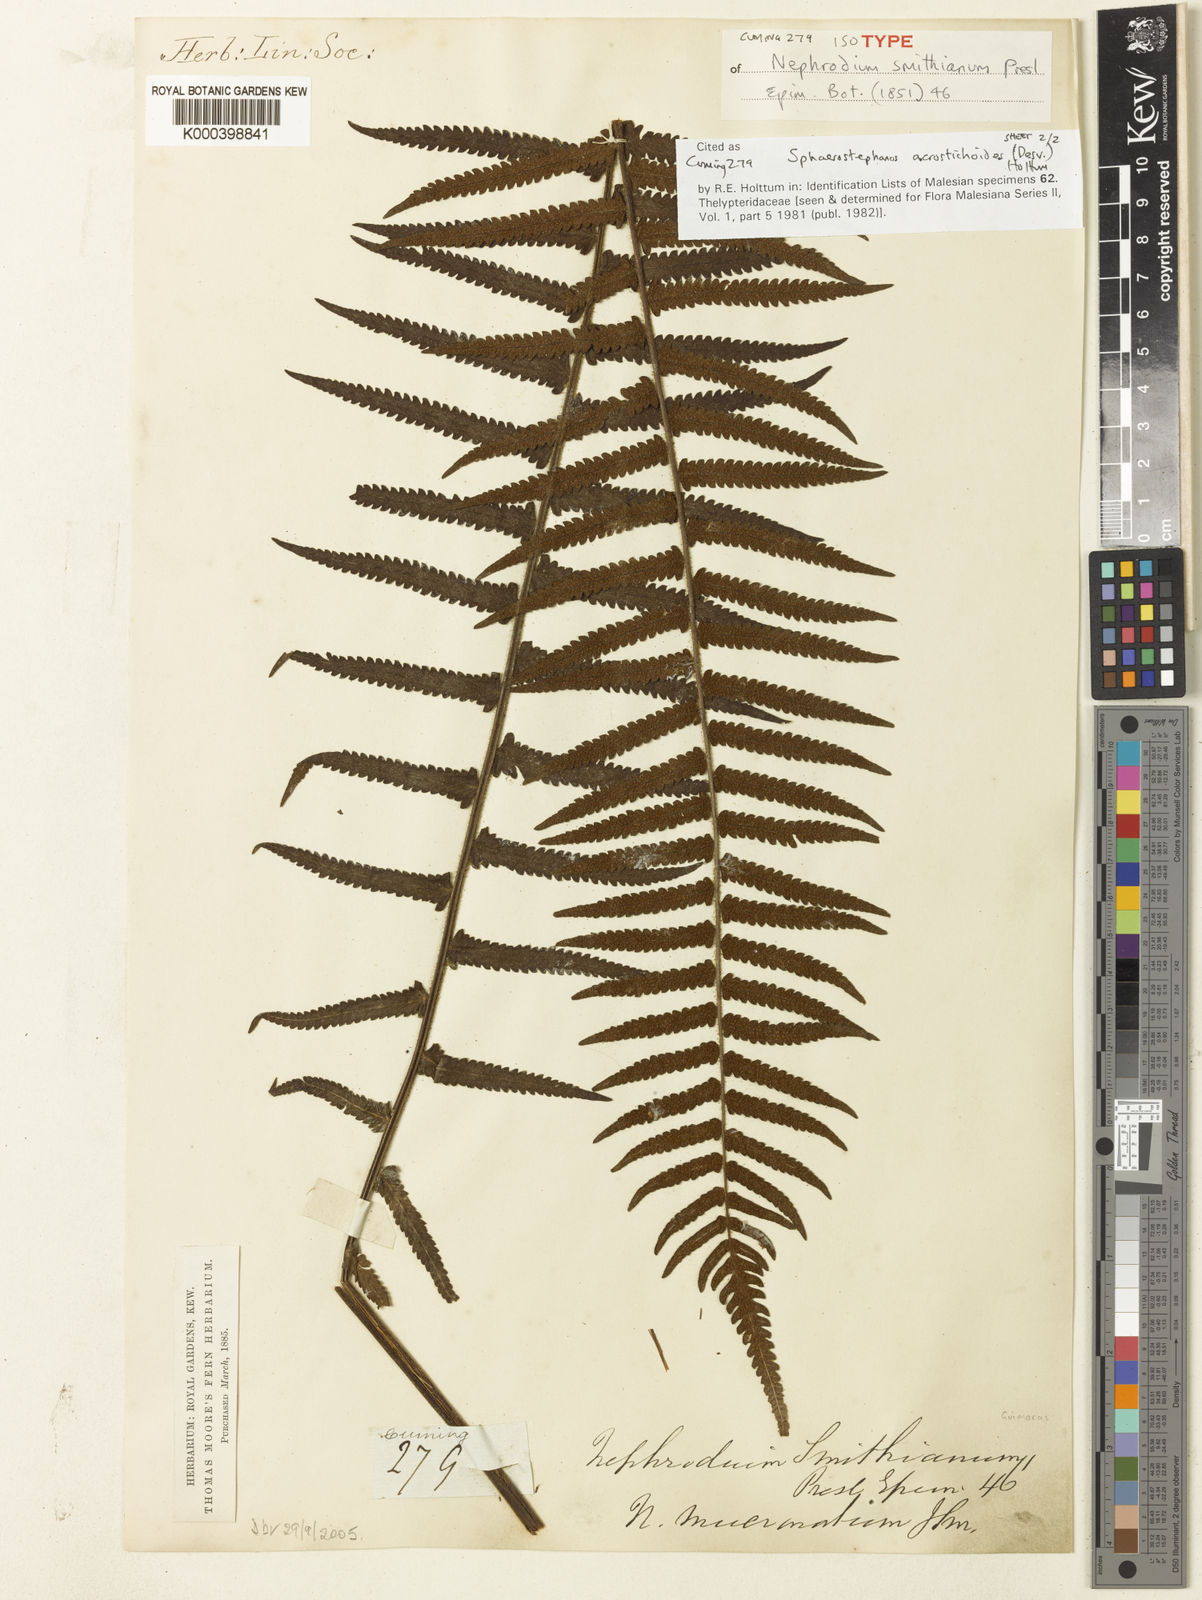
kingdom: Plantae
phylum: Tracheophyta
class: Polypodiopsida
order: Polypodiales
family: Thelypteridaceae
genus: Sphaerostephanos
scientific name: Sphaerostephanos acrostichoides
